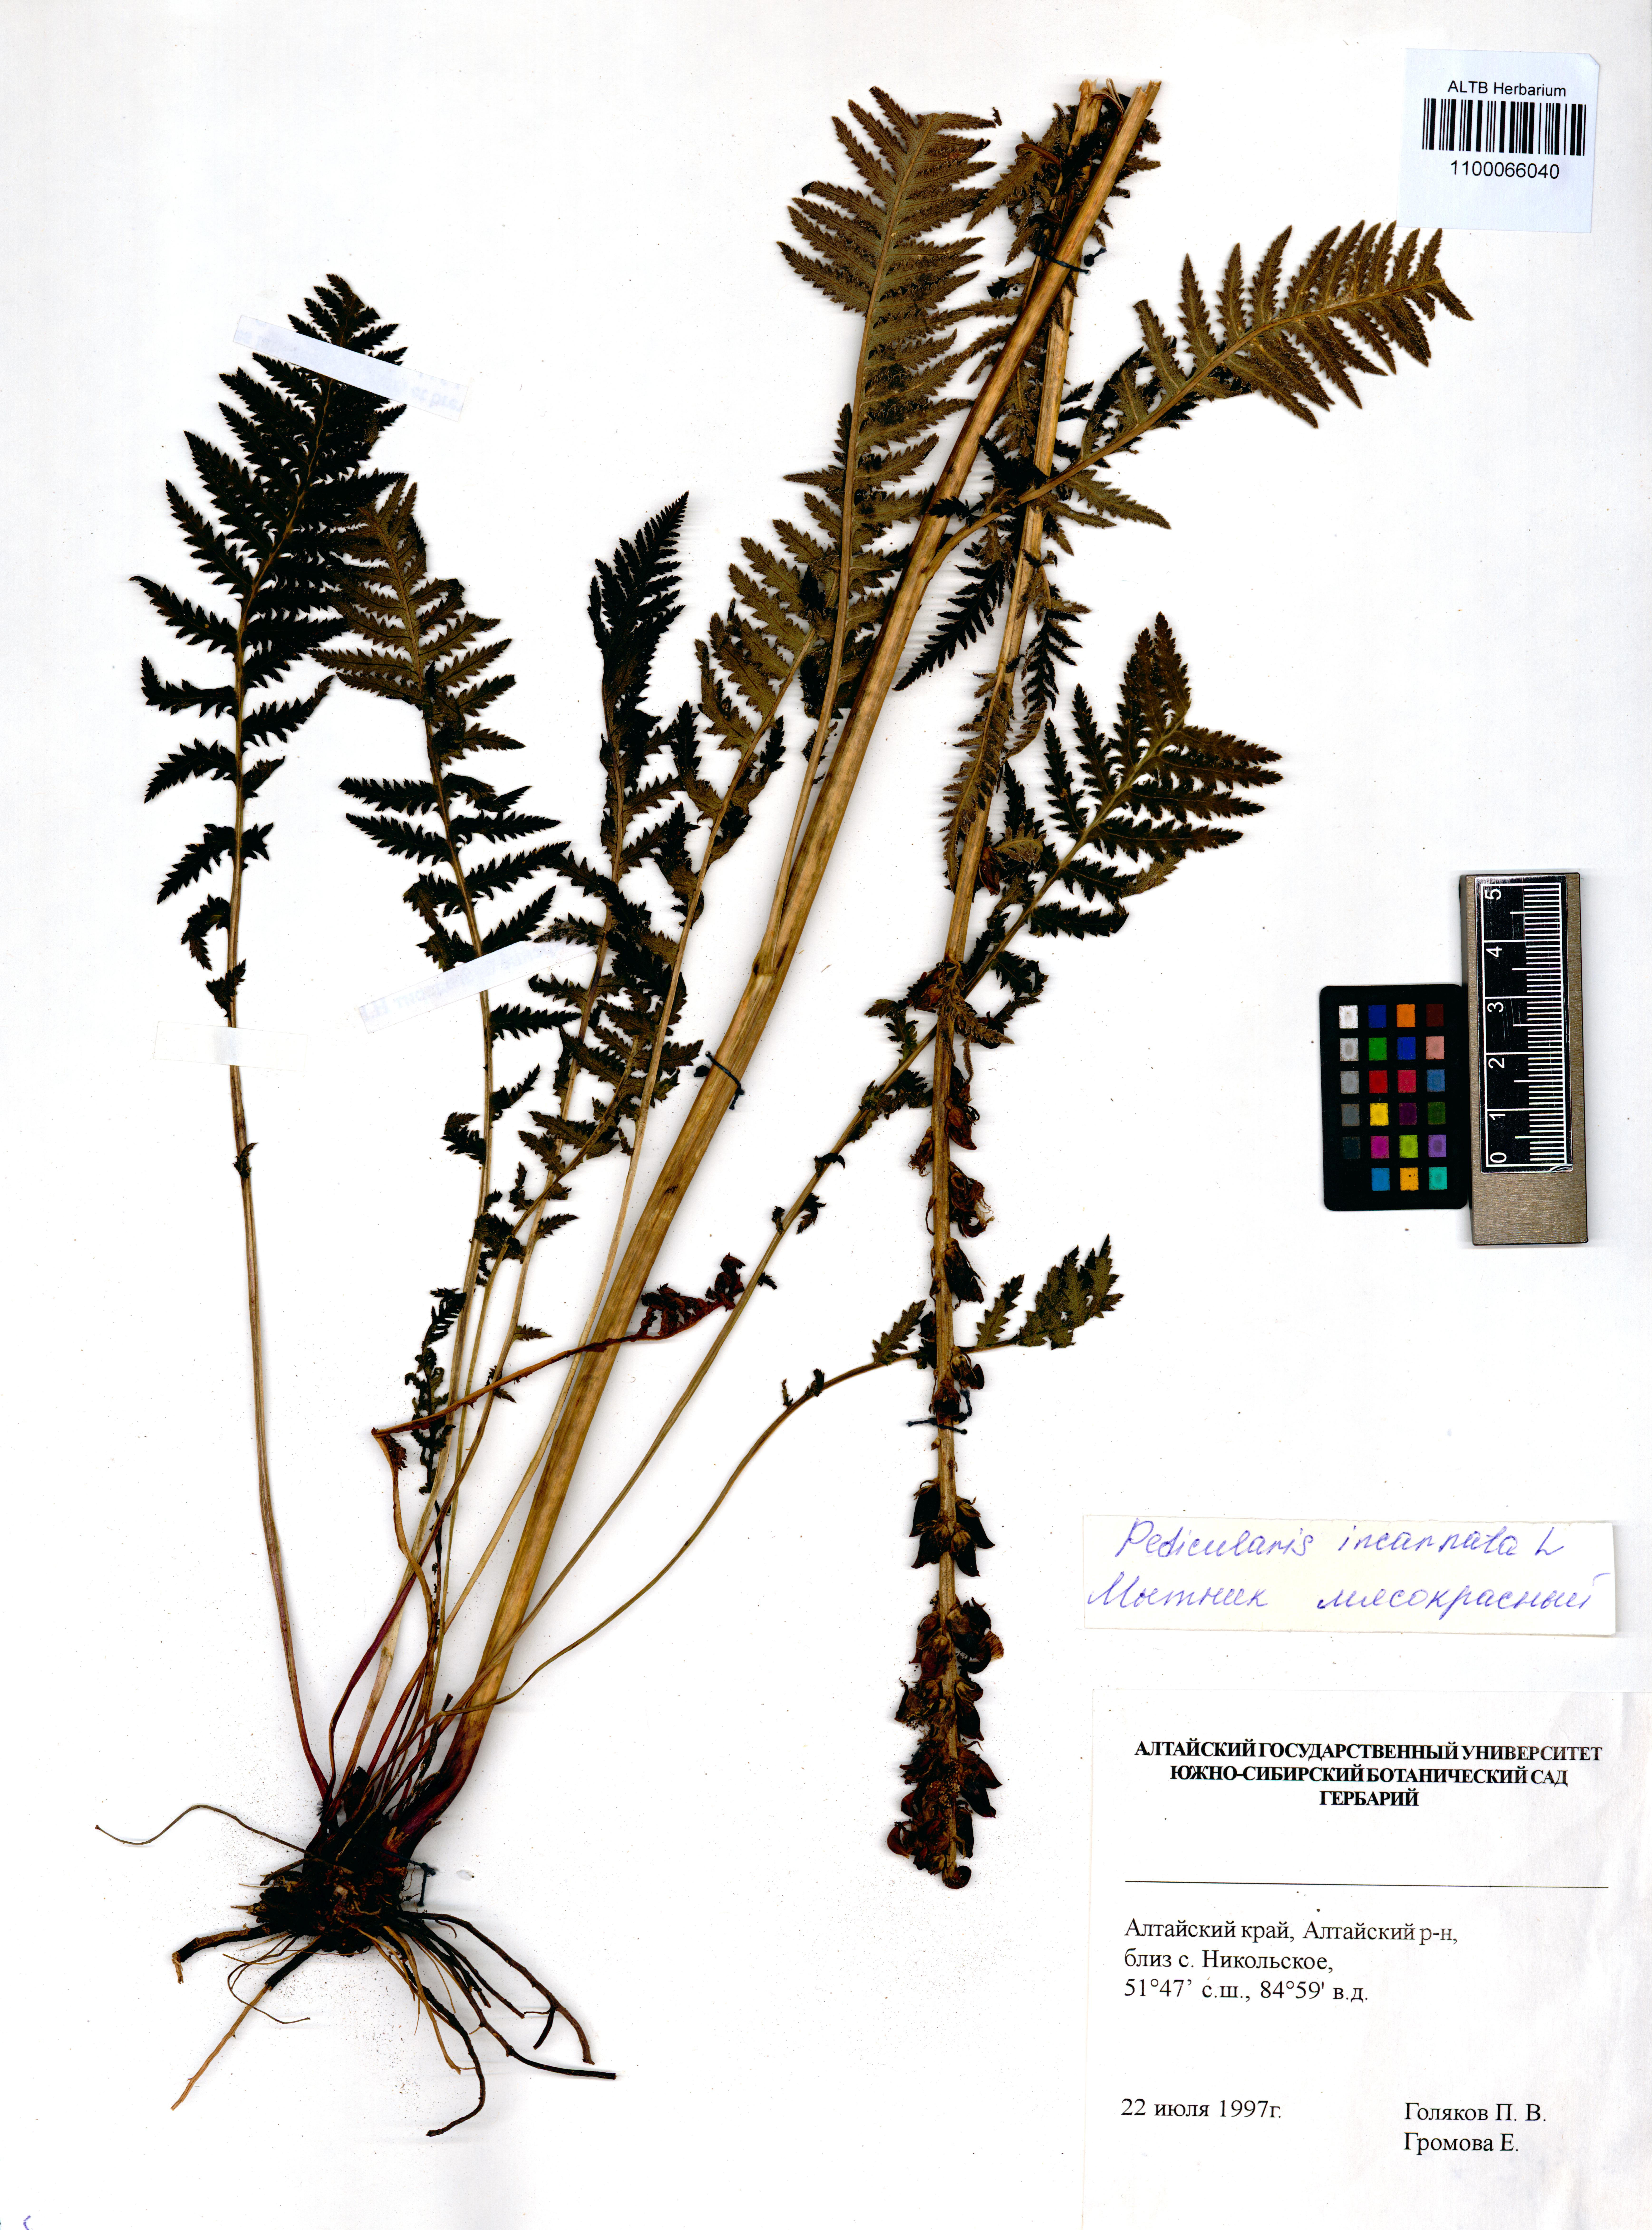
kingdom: Plantae
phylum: Tracheophyta
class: Magnoliopsida
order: Lamiales
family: Orobanchaceae
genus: Pedicularis
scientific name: Pedicularis incarnata
